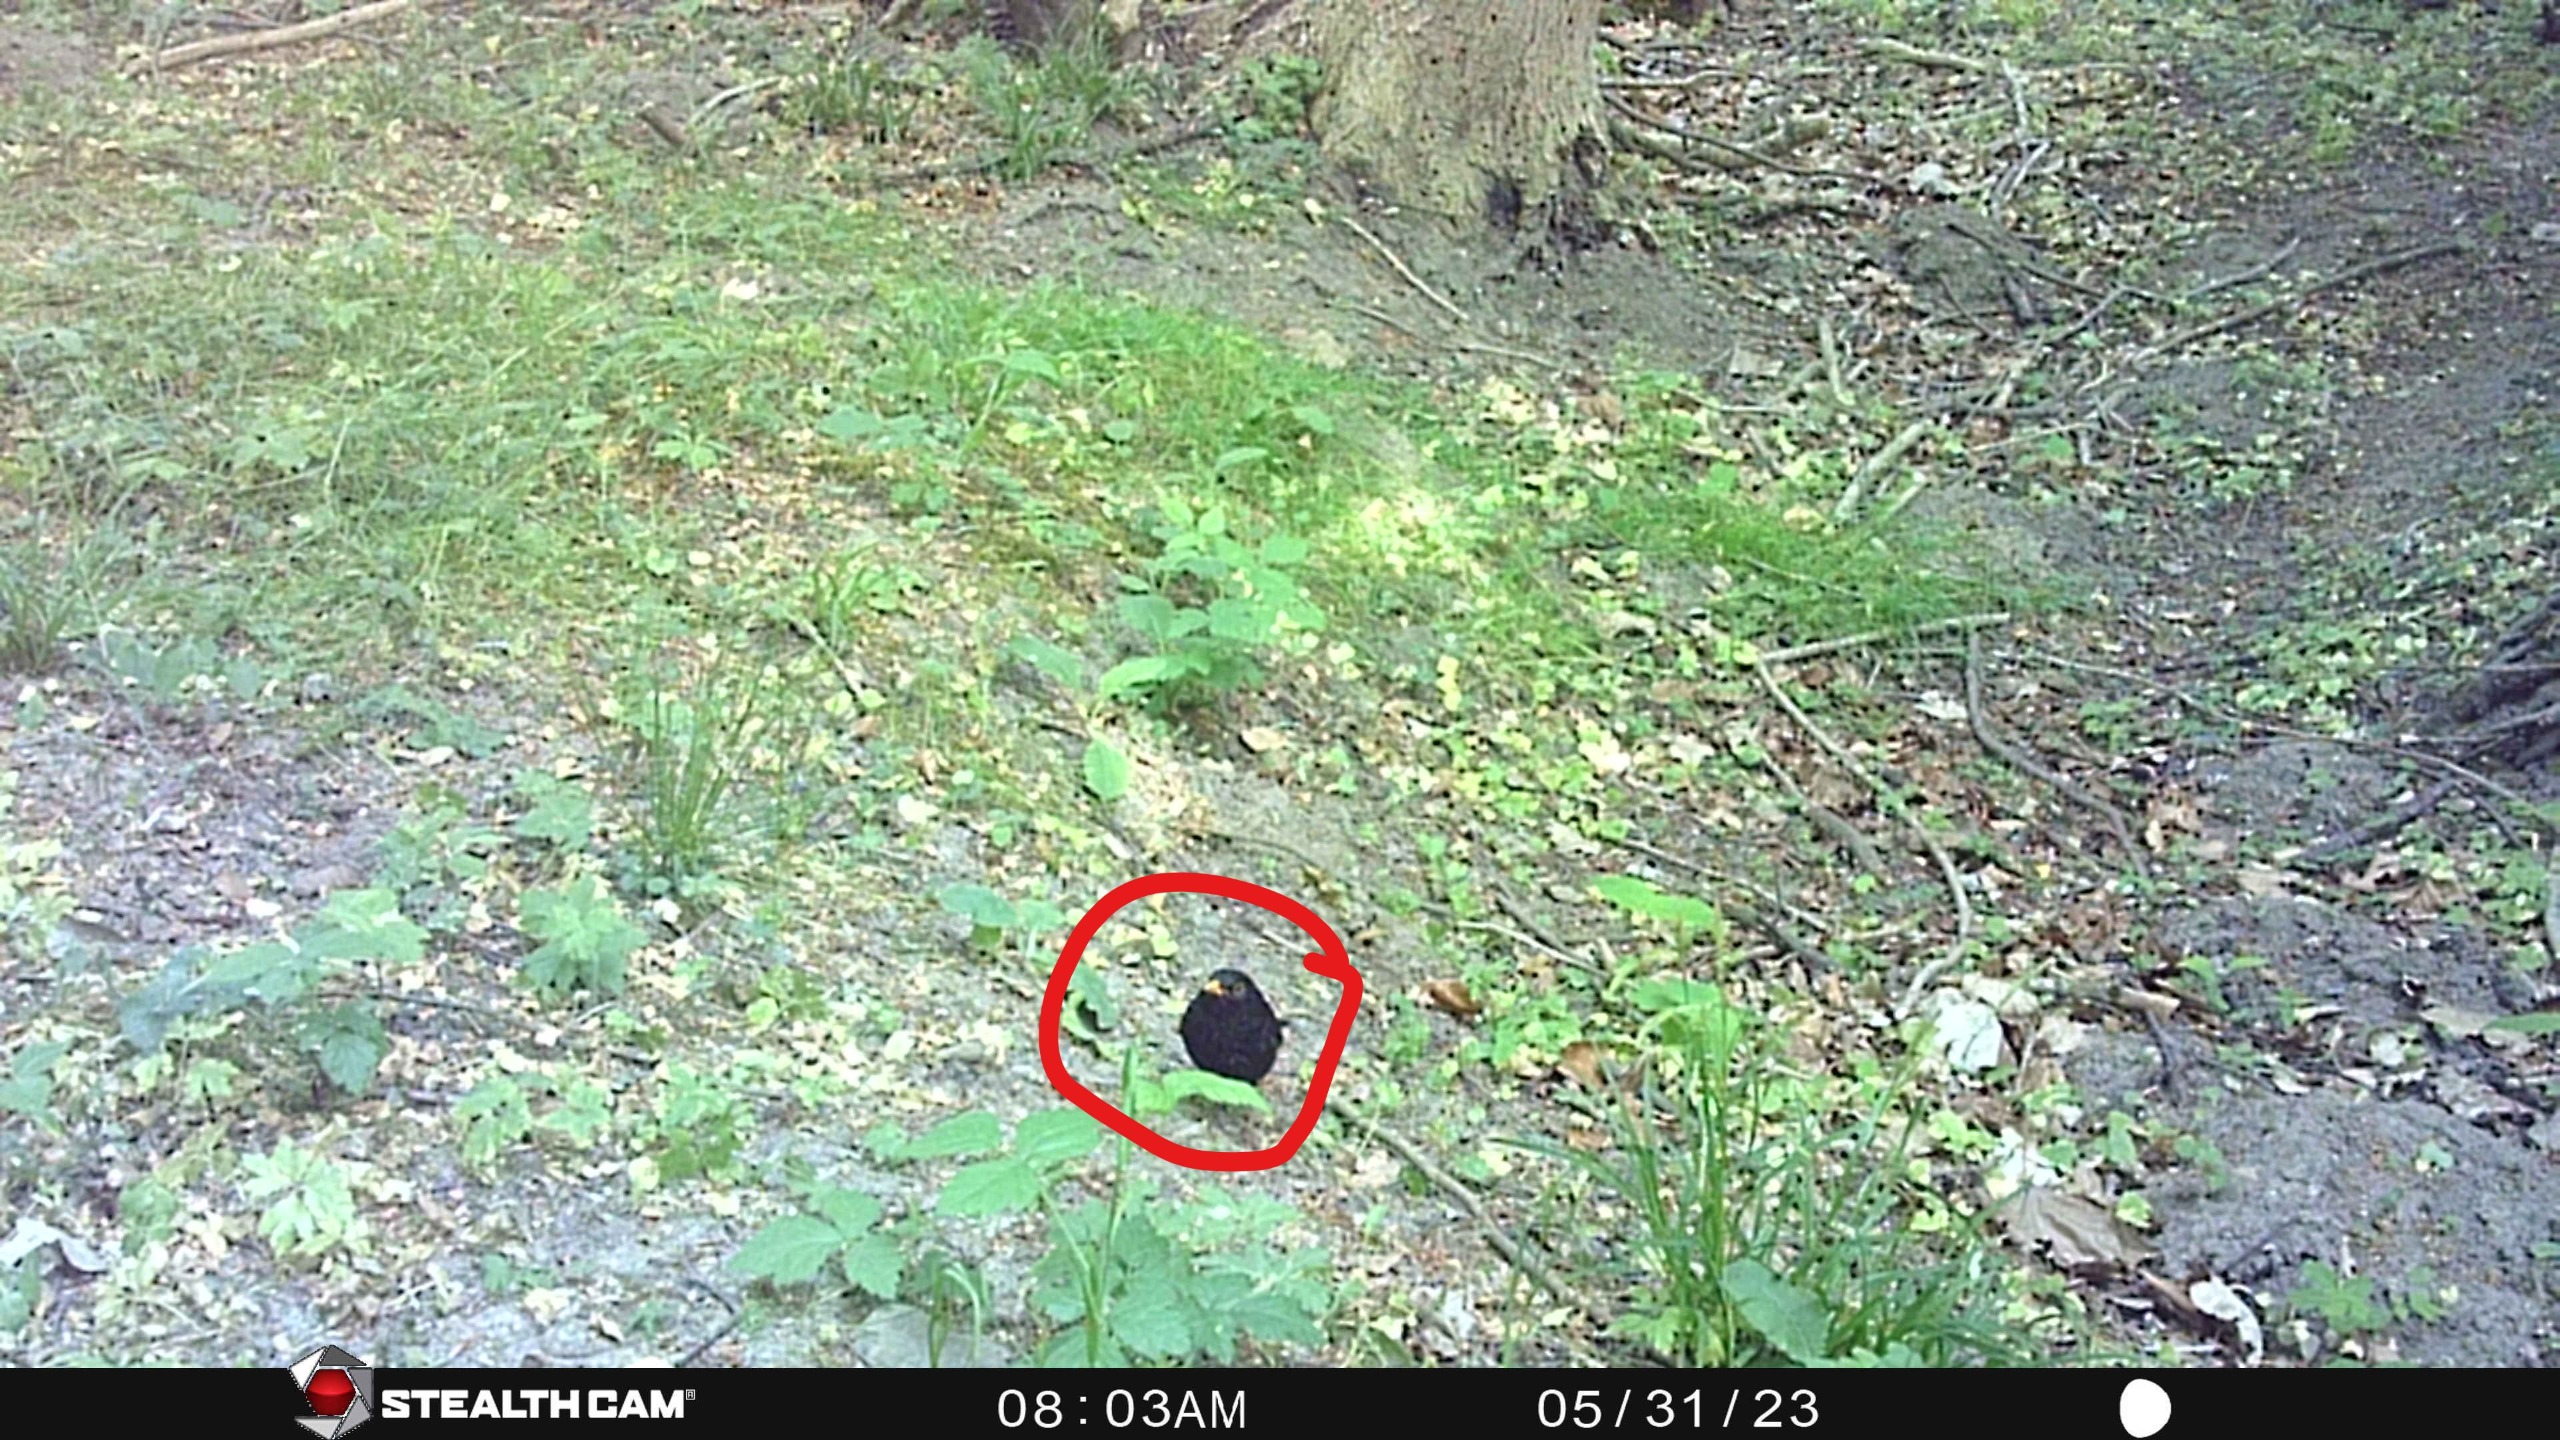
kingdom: Animalia
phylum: Chordata
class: Aves
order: Passeriformes
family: Turdidae
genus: Turdus
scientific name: Turdus merula
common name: Solsort
